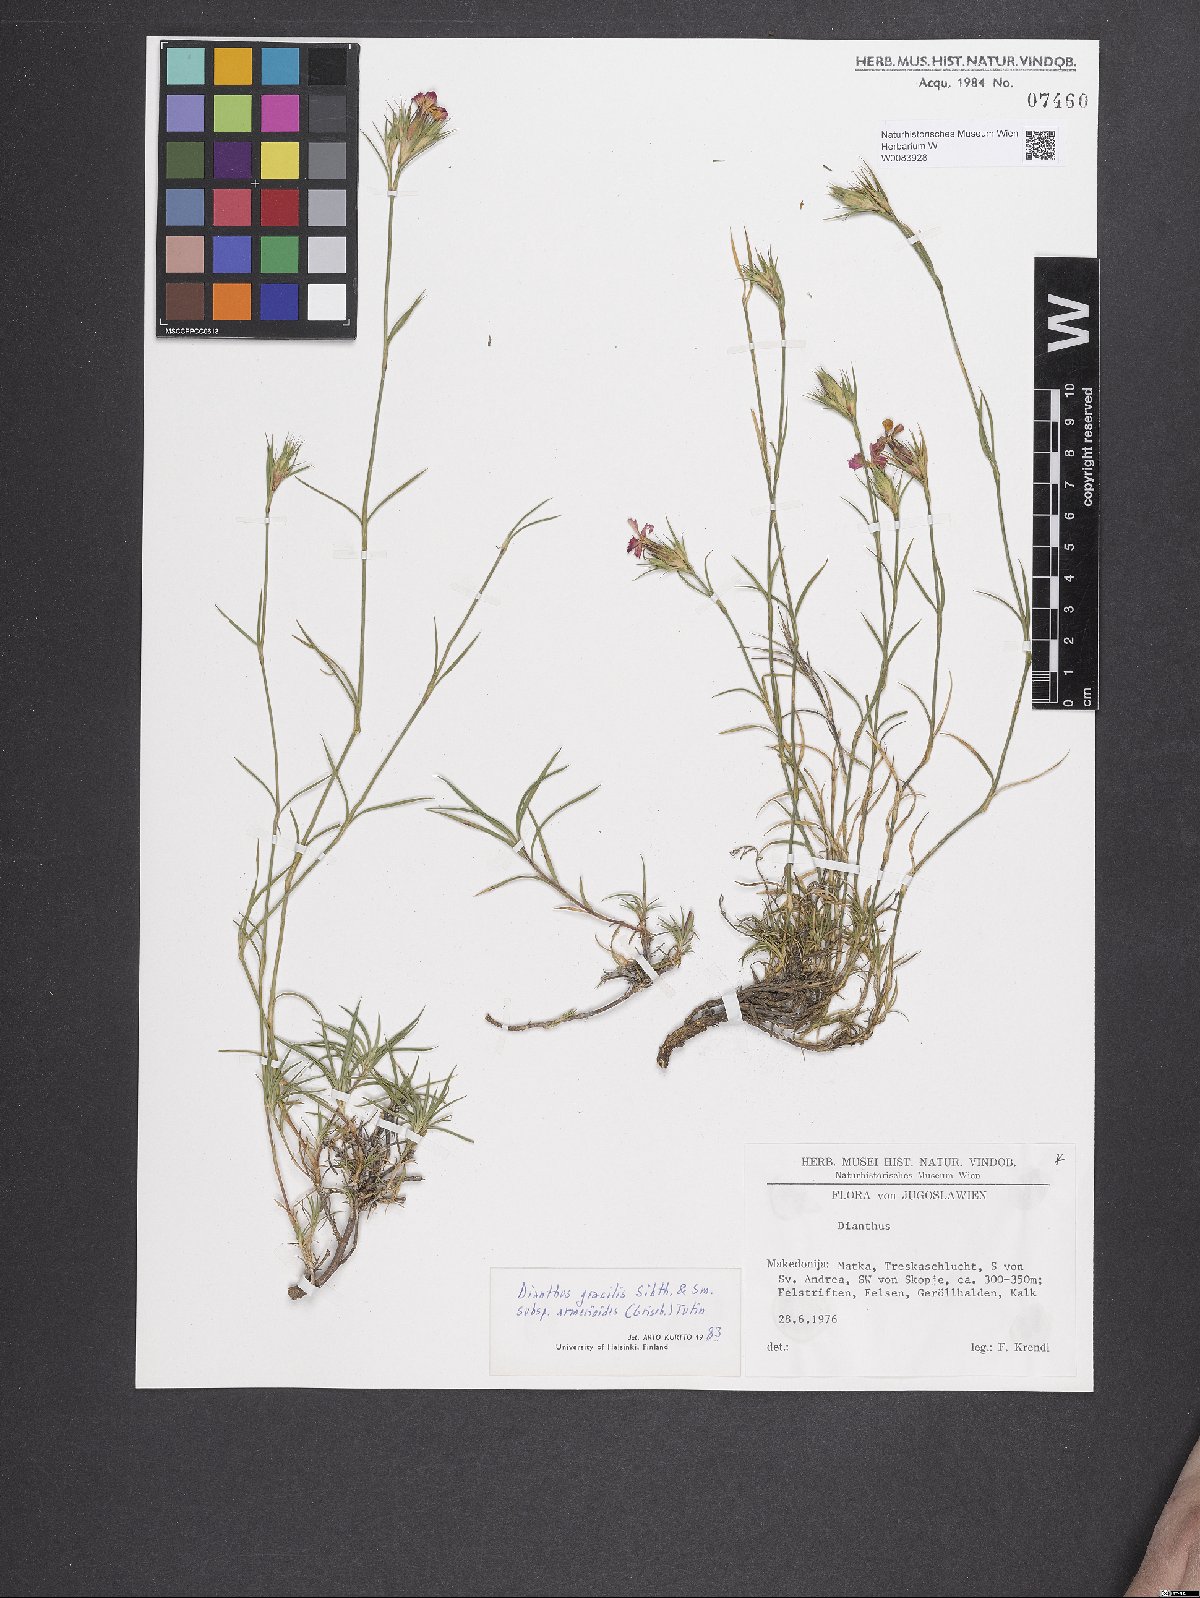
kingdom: Plantae
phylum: Tracheophyta
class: Magnoliopsida
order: Caryophyllales
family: Caryophyllaceae
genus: Dianthus
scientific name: Dianthus gracilis
